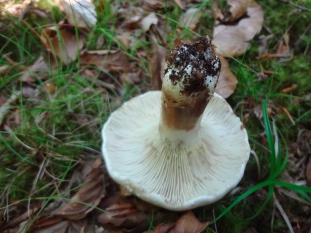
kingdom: Fungi
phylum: Basidiomycota
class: Agaricomycetes
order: Russulales
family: Russulaceae
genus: Russula
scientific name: Russula densifolia
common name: tætbladet skørhat
